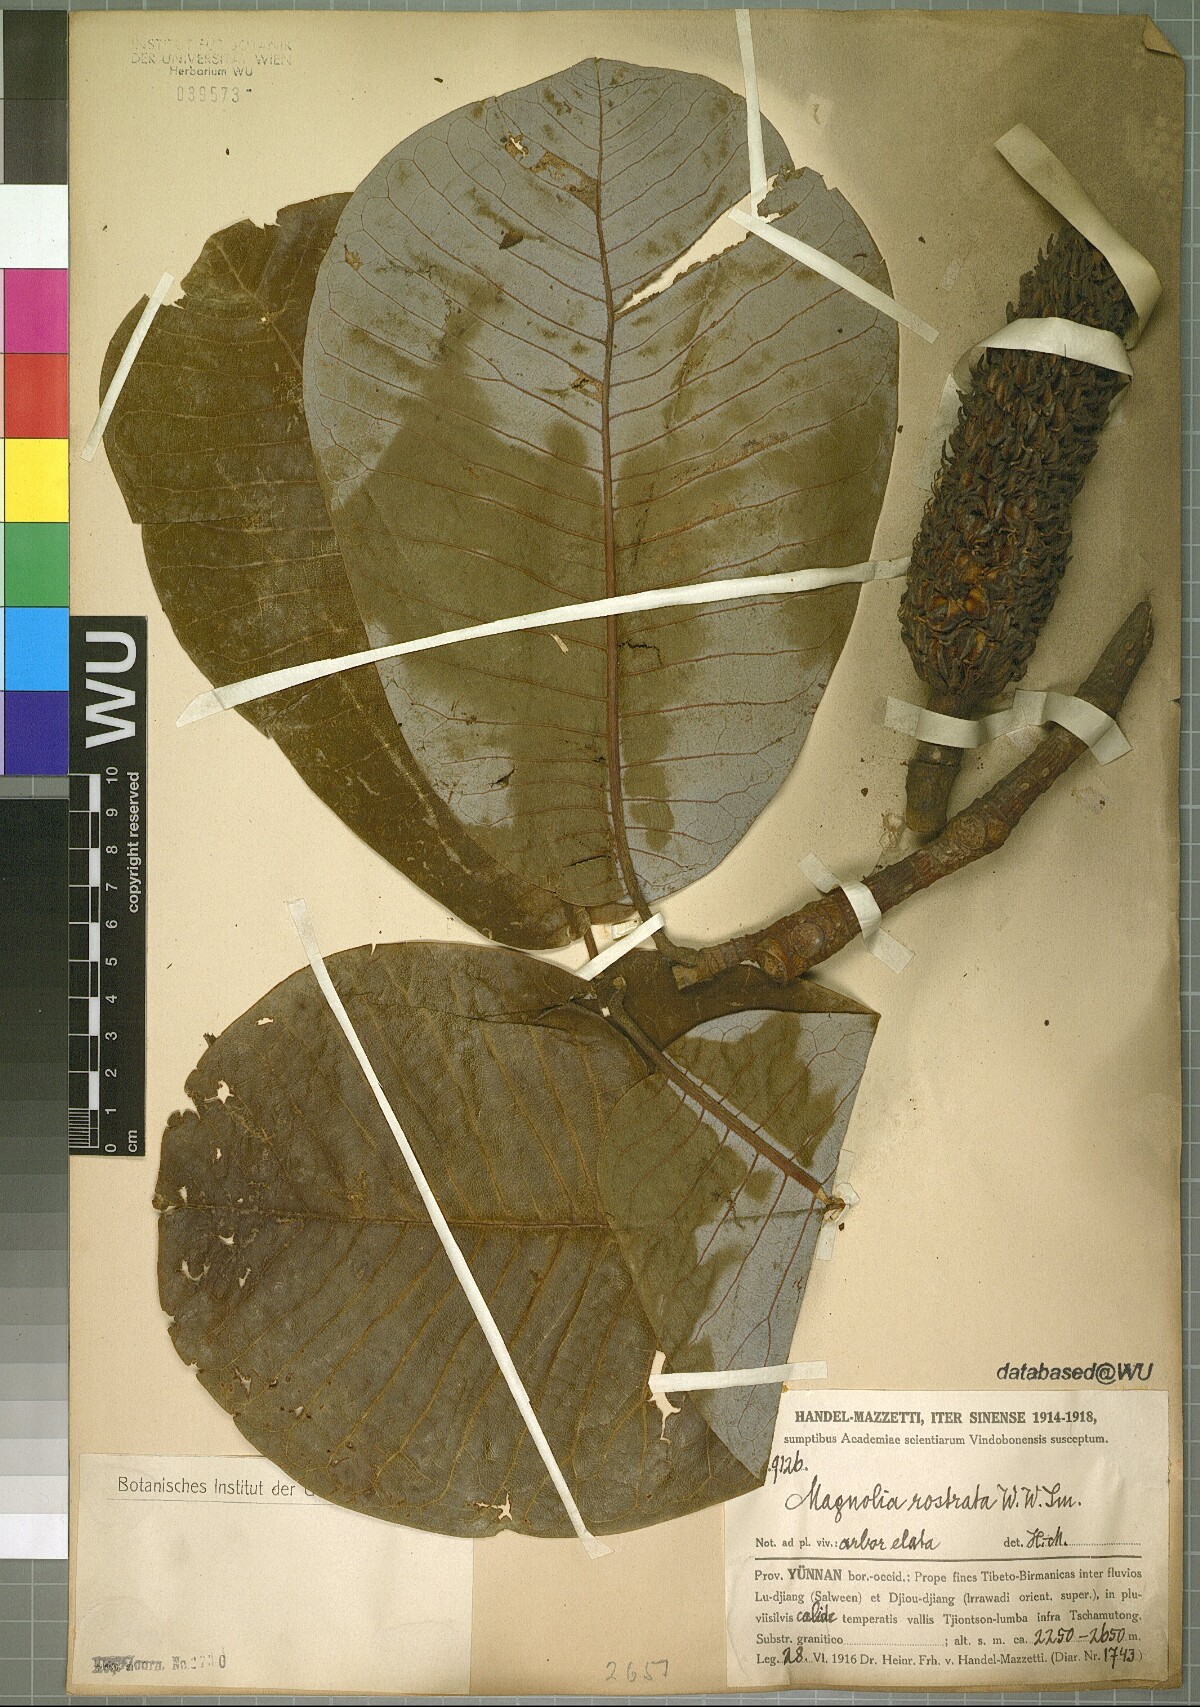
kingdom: Plantae
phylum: Tracheophyta
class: Magnoliopsida
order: Magnoliales
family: Magnoliaceae
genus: Magnolia
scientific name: Magnolia rostrata
